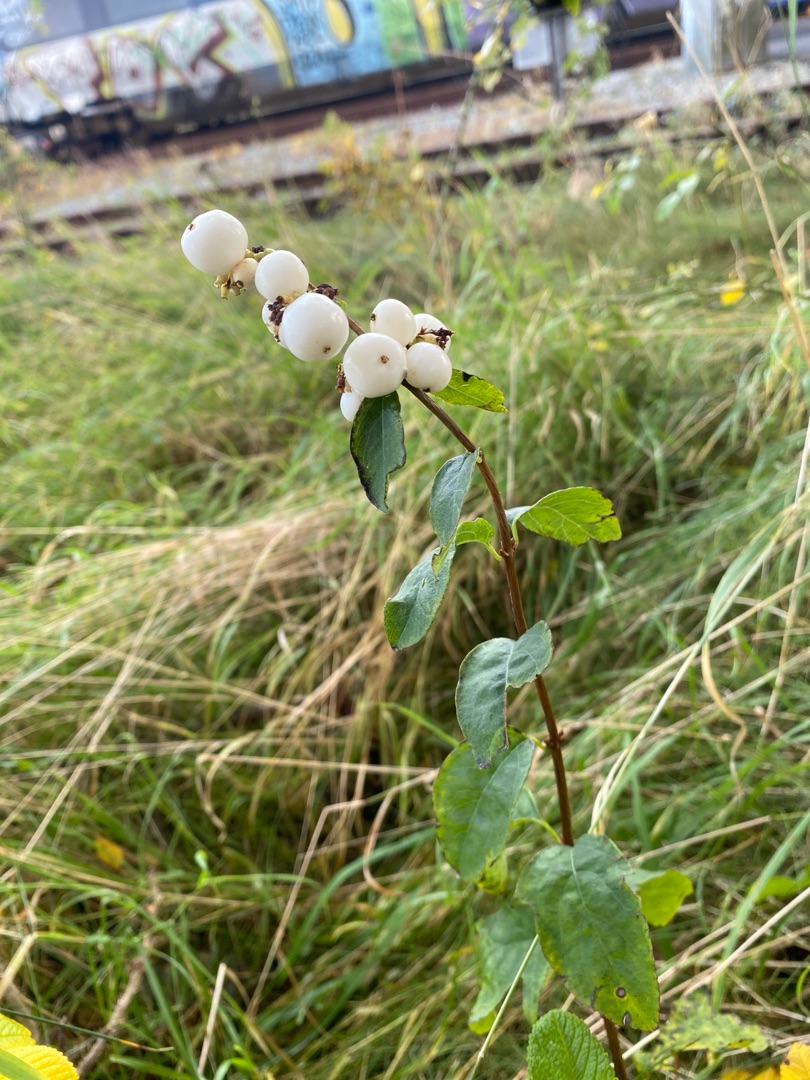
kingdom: Plantae
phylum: Tracheophyta
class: Magnoliopsida
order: Dipsacales
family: Caprifoliaceae
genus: Symphoricarpos
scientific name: Symphoricarpos albus
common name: Almindelig snebær
